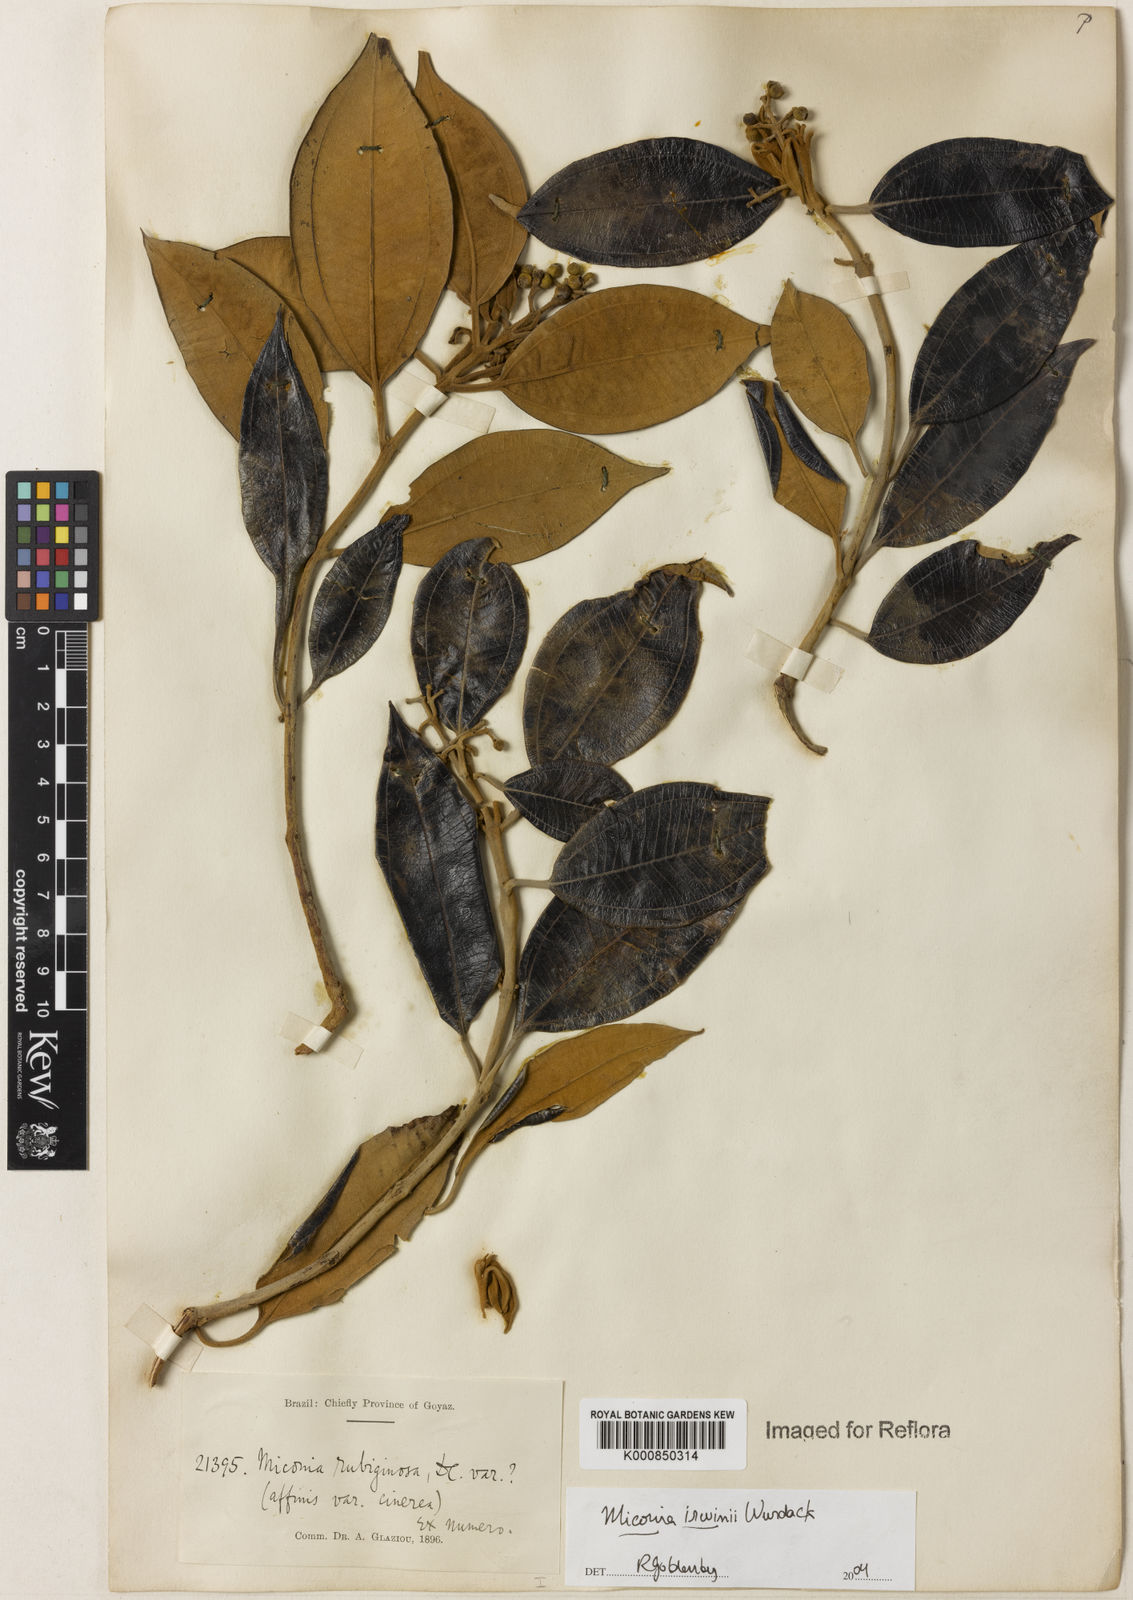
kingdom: Plantae
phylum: Tracheophyta
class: Magnoliopsida
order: Myrtales
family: Melastomataceae
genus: Miconia
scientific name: Miconia irwinii
